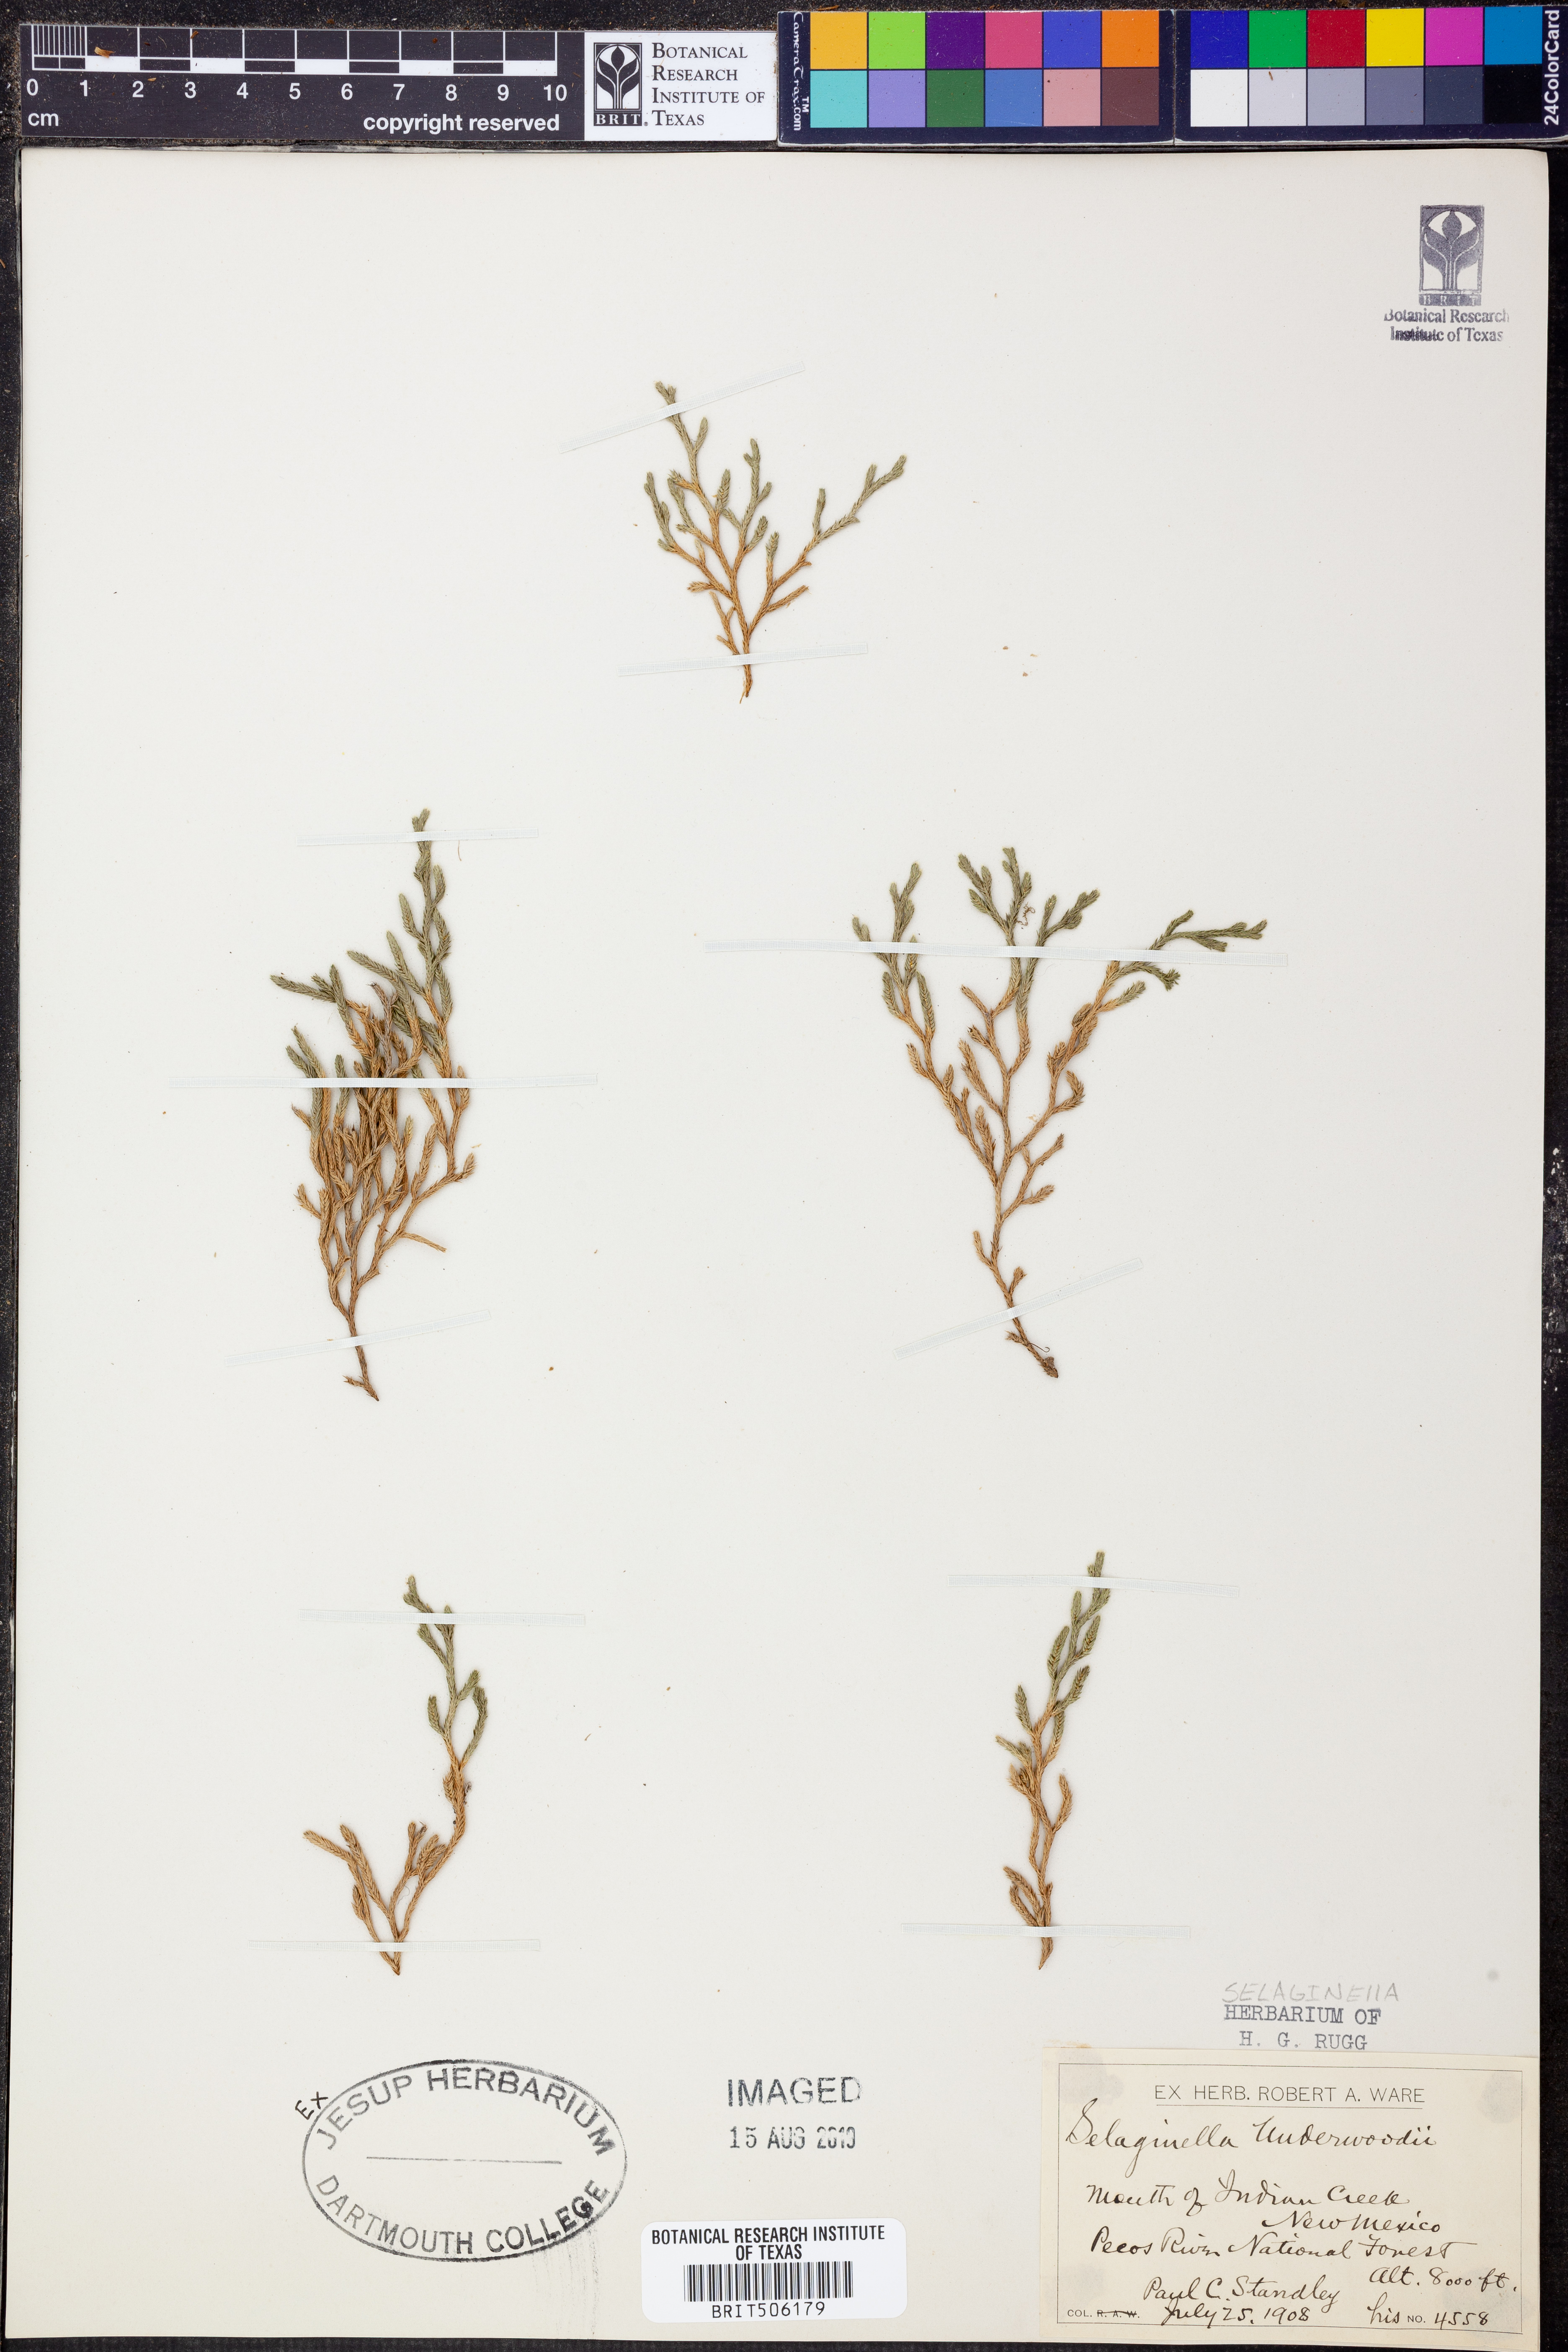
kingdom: Plantae
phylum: Tracheophyta
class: Lycopodiopsida
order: Selaginellales
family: Selaginellaceae
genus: Selaginella
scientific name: Selaginella underwoodii
